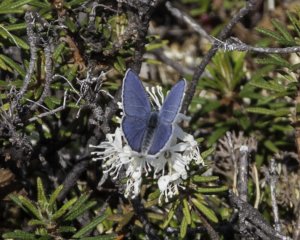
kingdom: Animalia
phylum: Arthropoda
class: Insecta
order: Lepidoptera
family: Lycaenidae
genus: Vacciniina
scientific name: Vacciniina optilete
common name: Cranberry Blue
